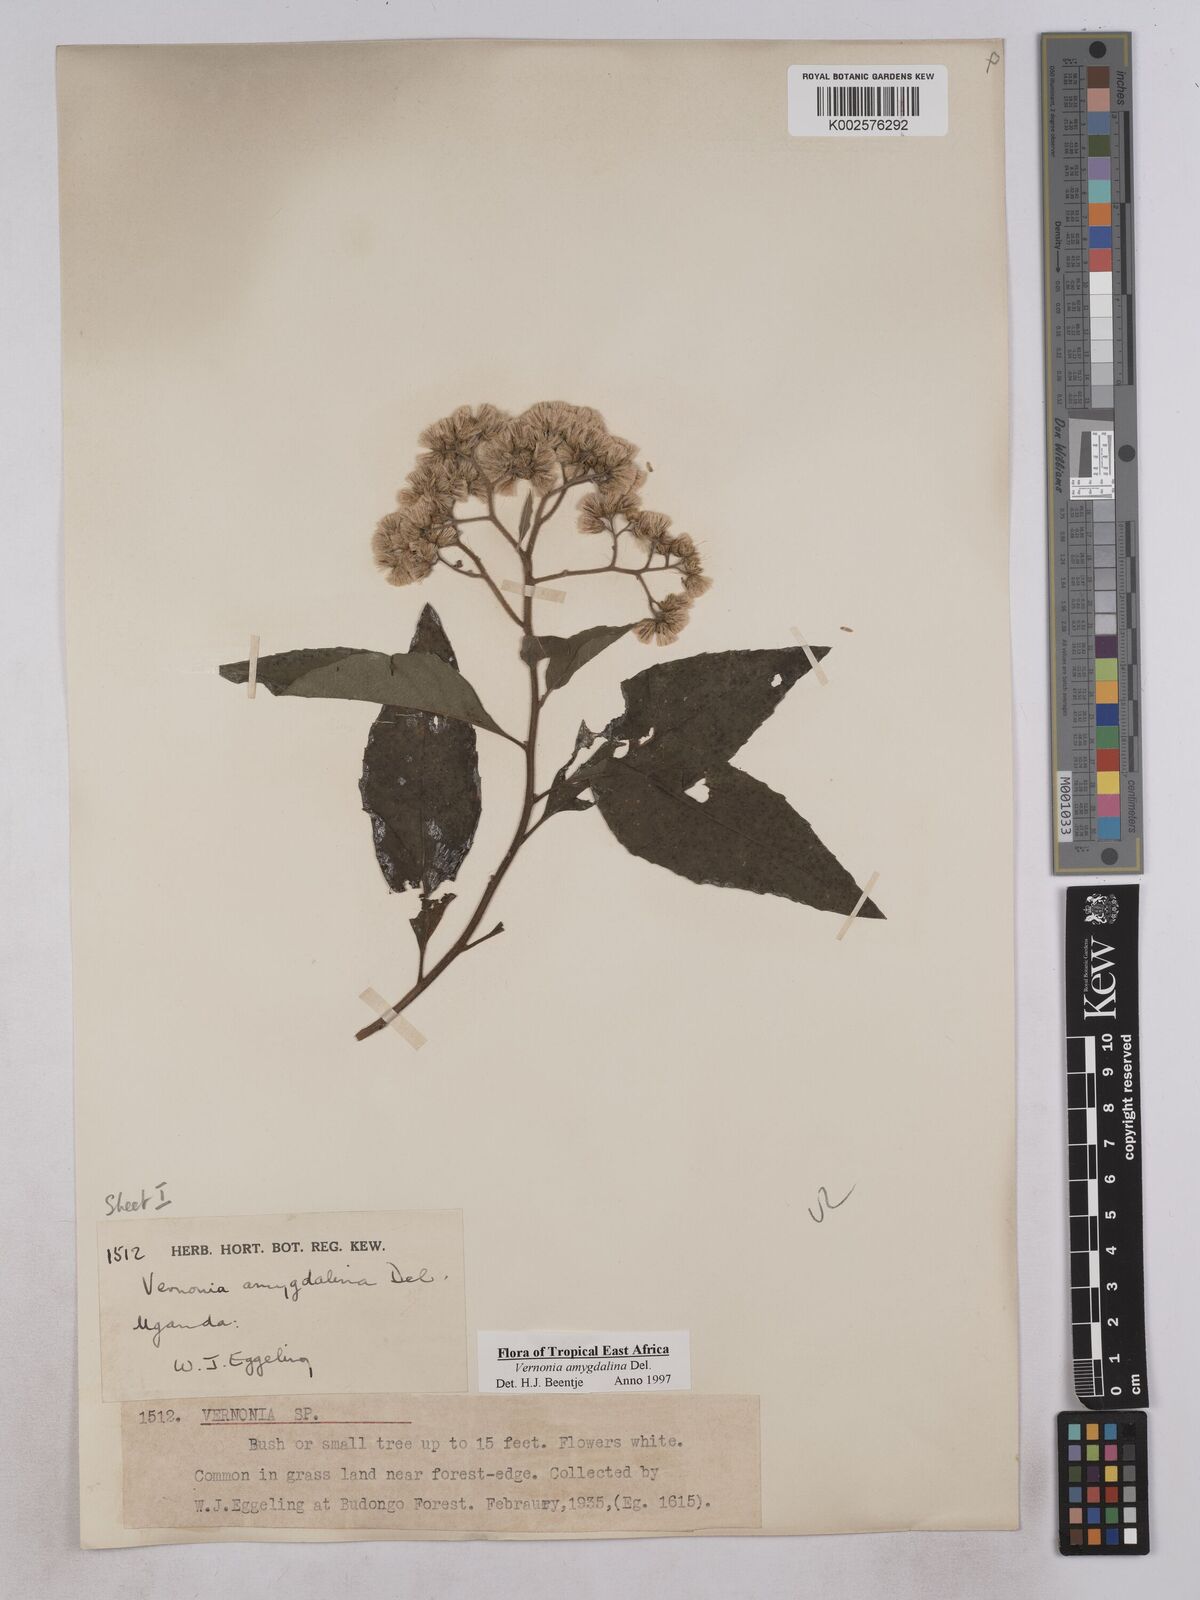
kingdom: Plantae
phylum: Tracheophyta
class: Magnoliopsida
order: Asterales
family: Asteraceae
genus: Gymnanthemum
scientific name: Gymnanthemum amygdalinum
